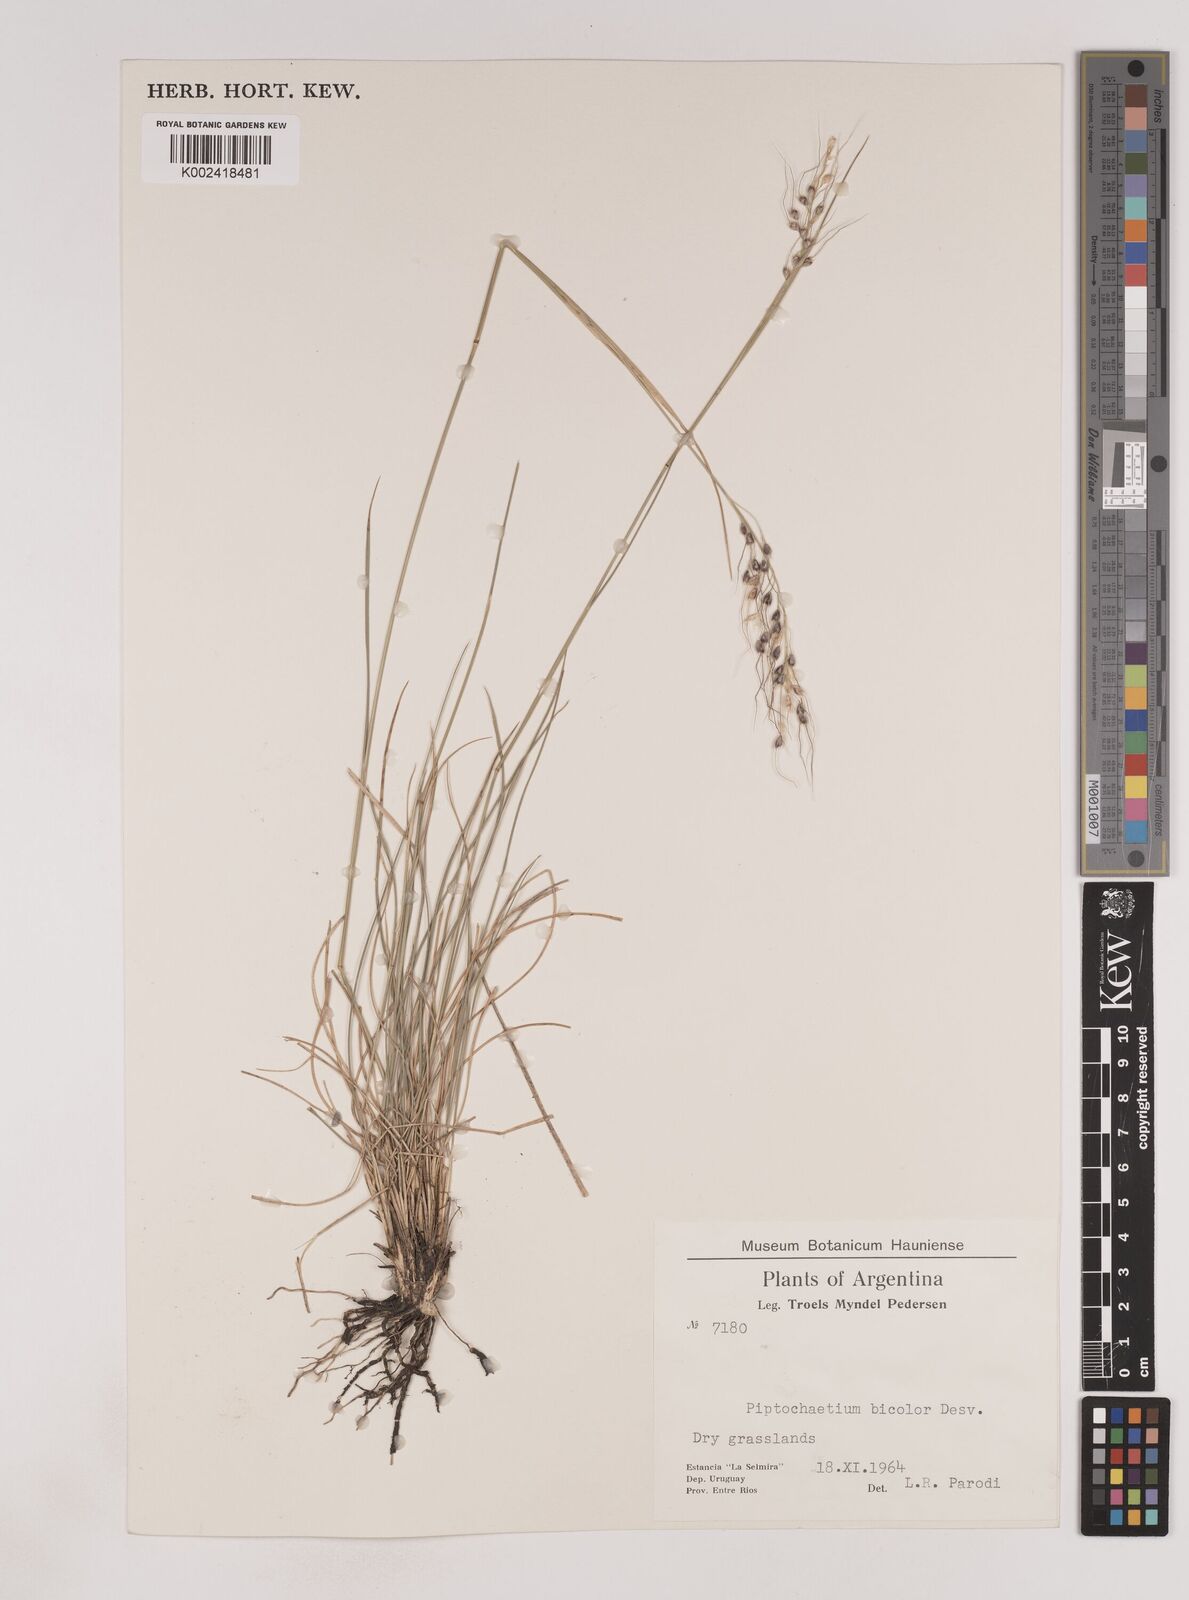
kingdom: Plantae
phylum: Tracheophyta
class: Liliopsida
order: Poales
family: Poaceae
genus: Piptochaetium
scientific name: Piptochaetium bicolor
